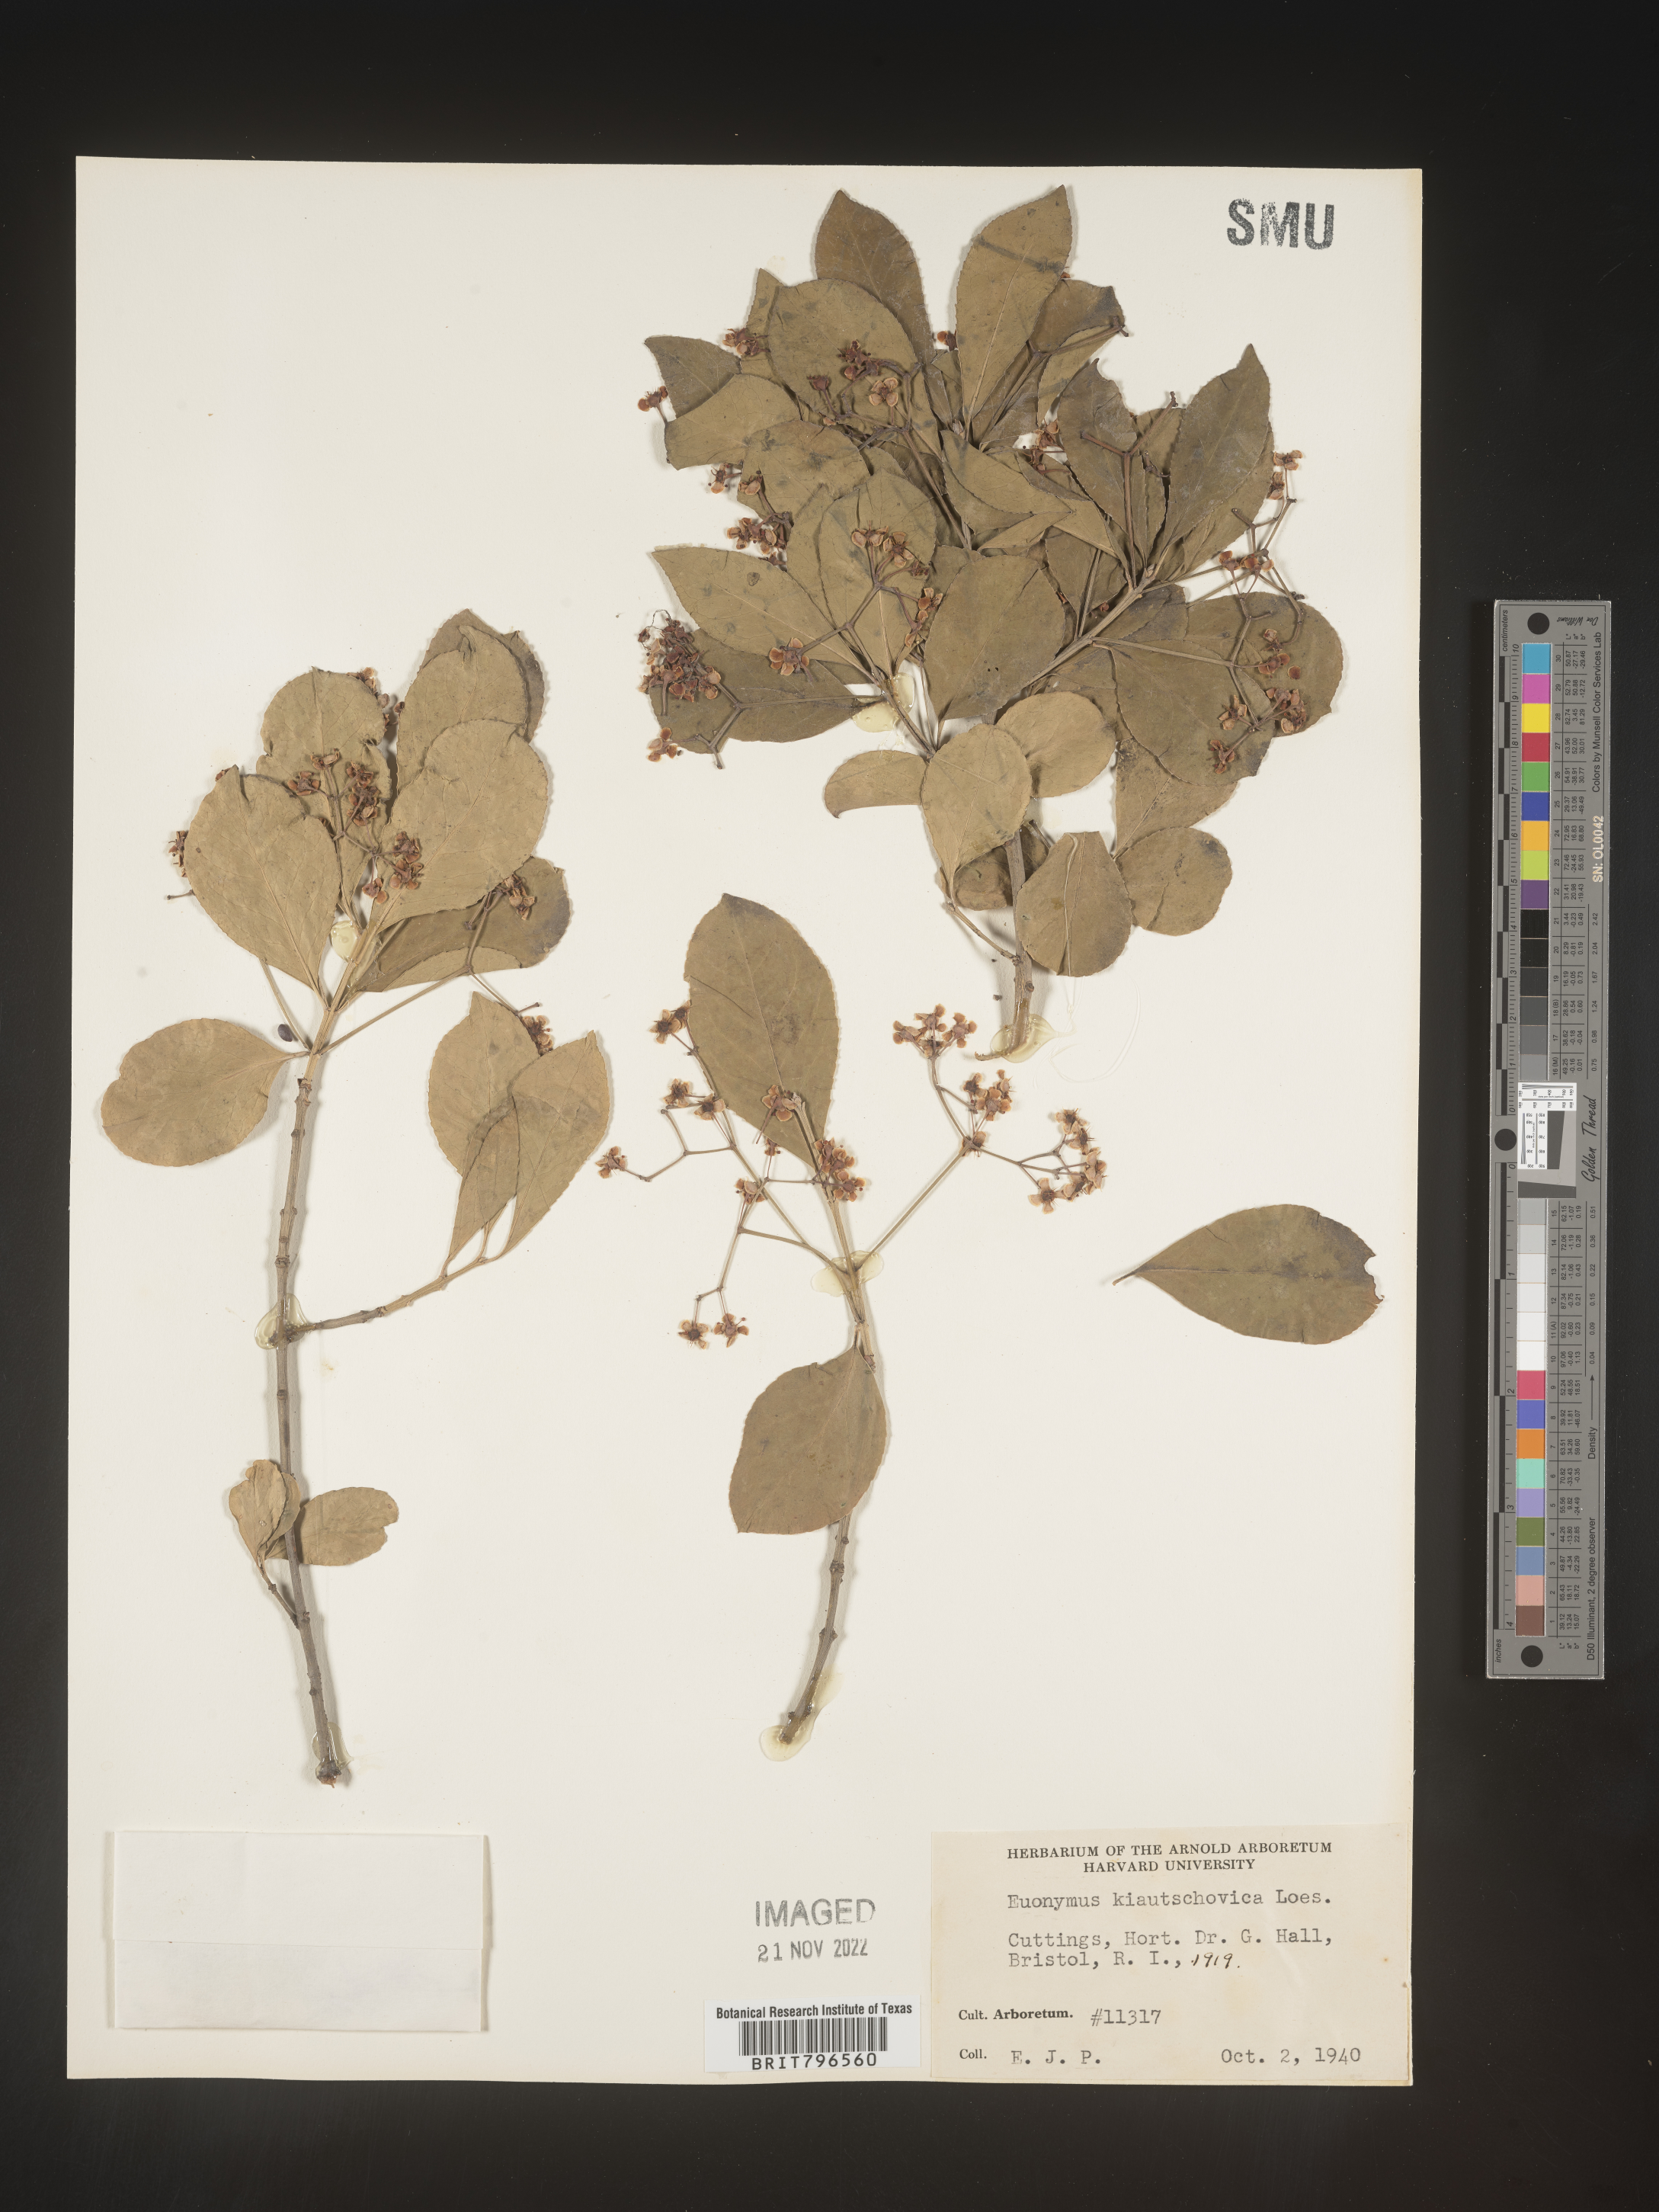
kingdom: Plantae
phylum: Tracheophyta
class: Magnoliopsida
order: Celastrales
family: Celastraceae
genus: Euonymus
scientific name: Euonymus
